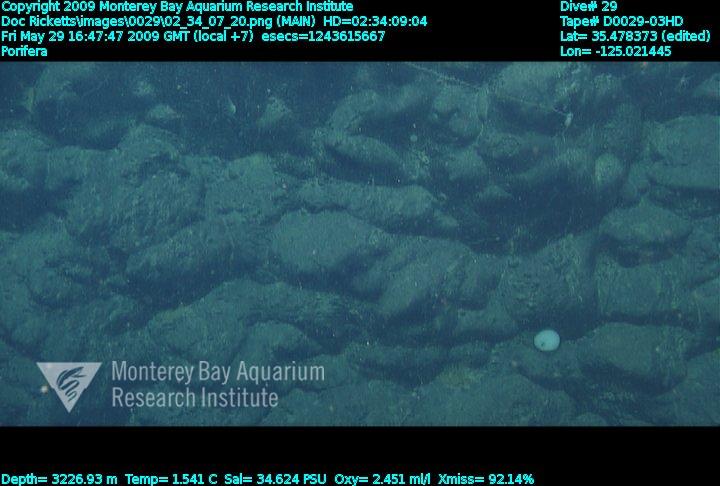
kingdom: Animalia
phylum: Porifera
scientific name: Porifera
